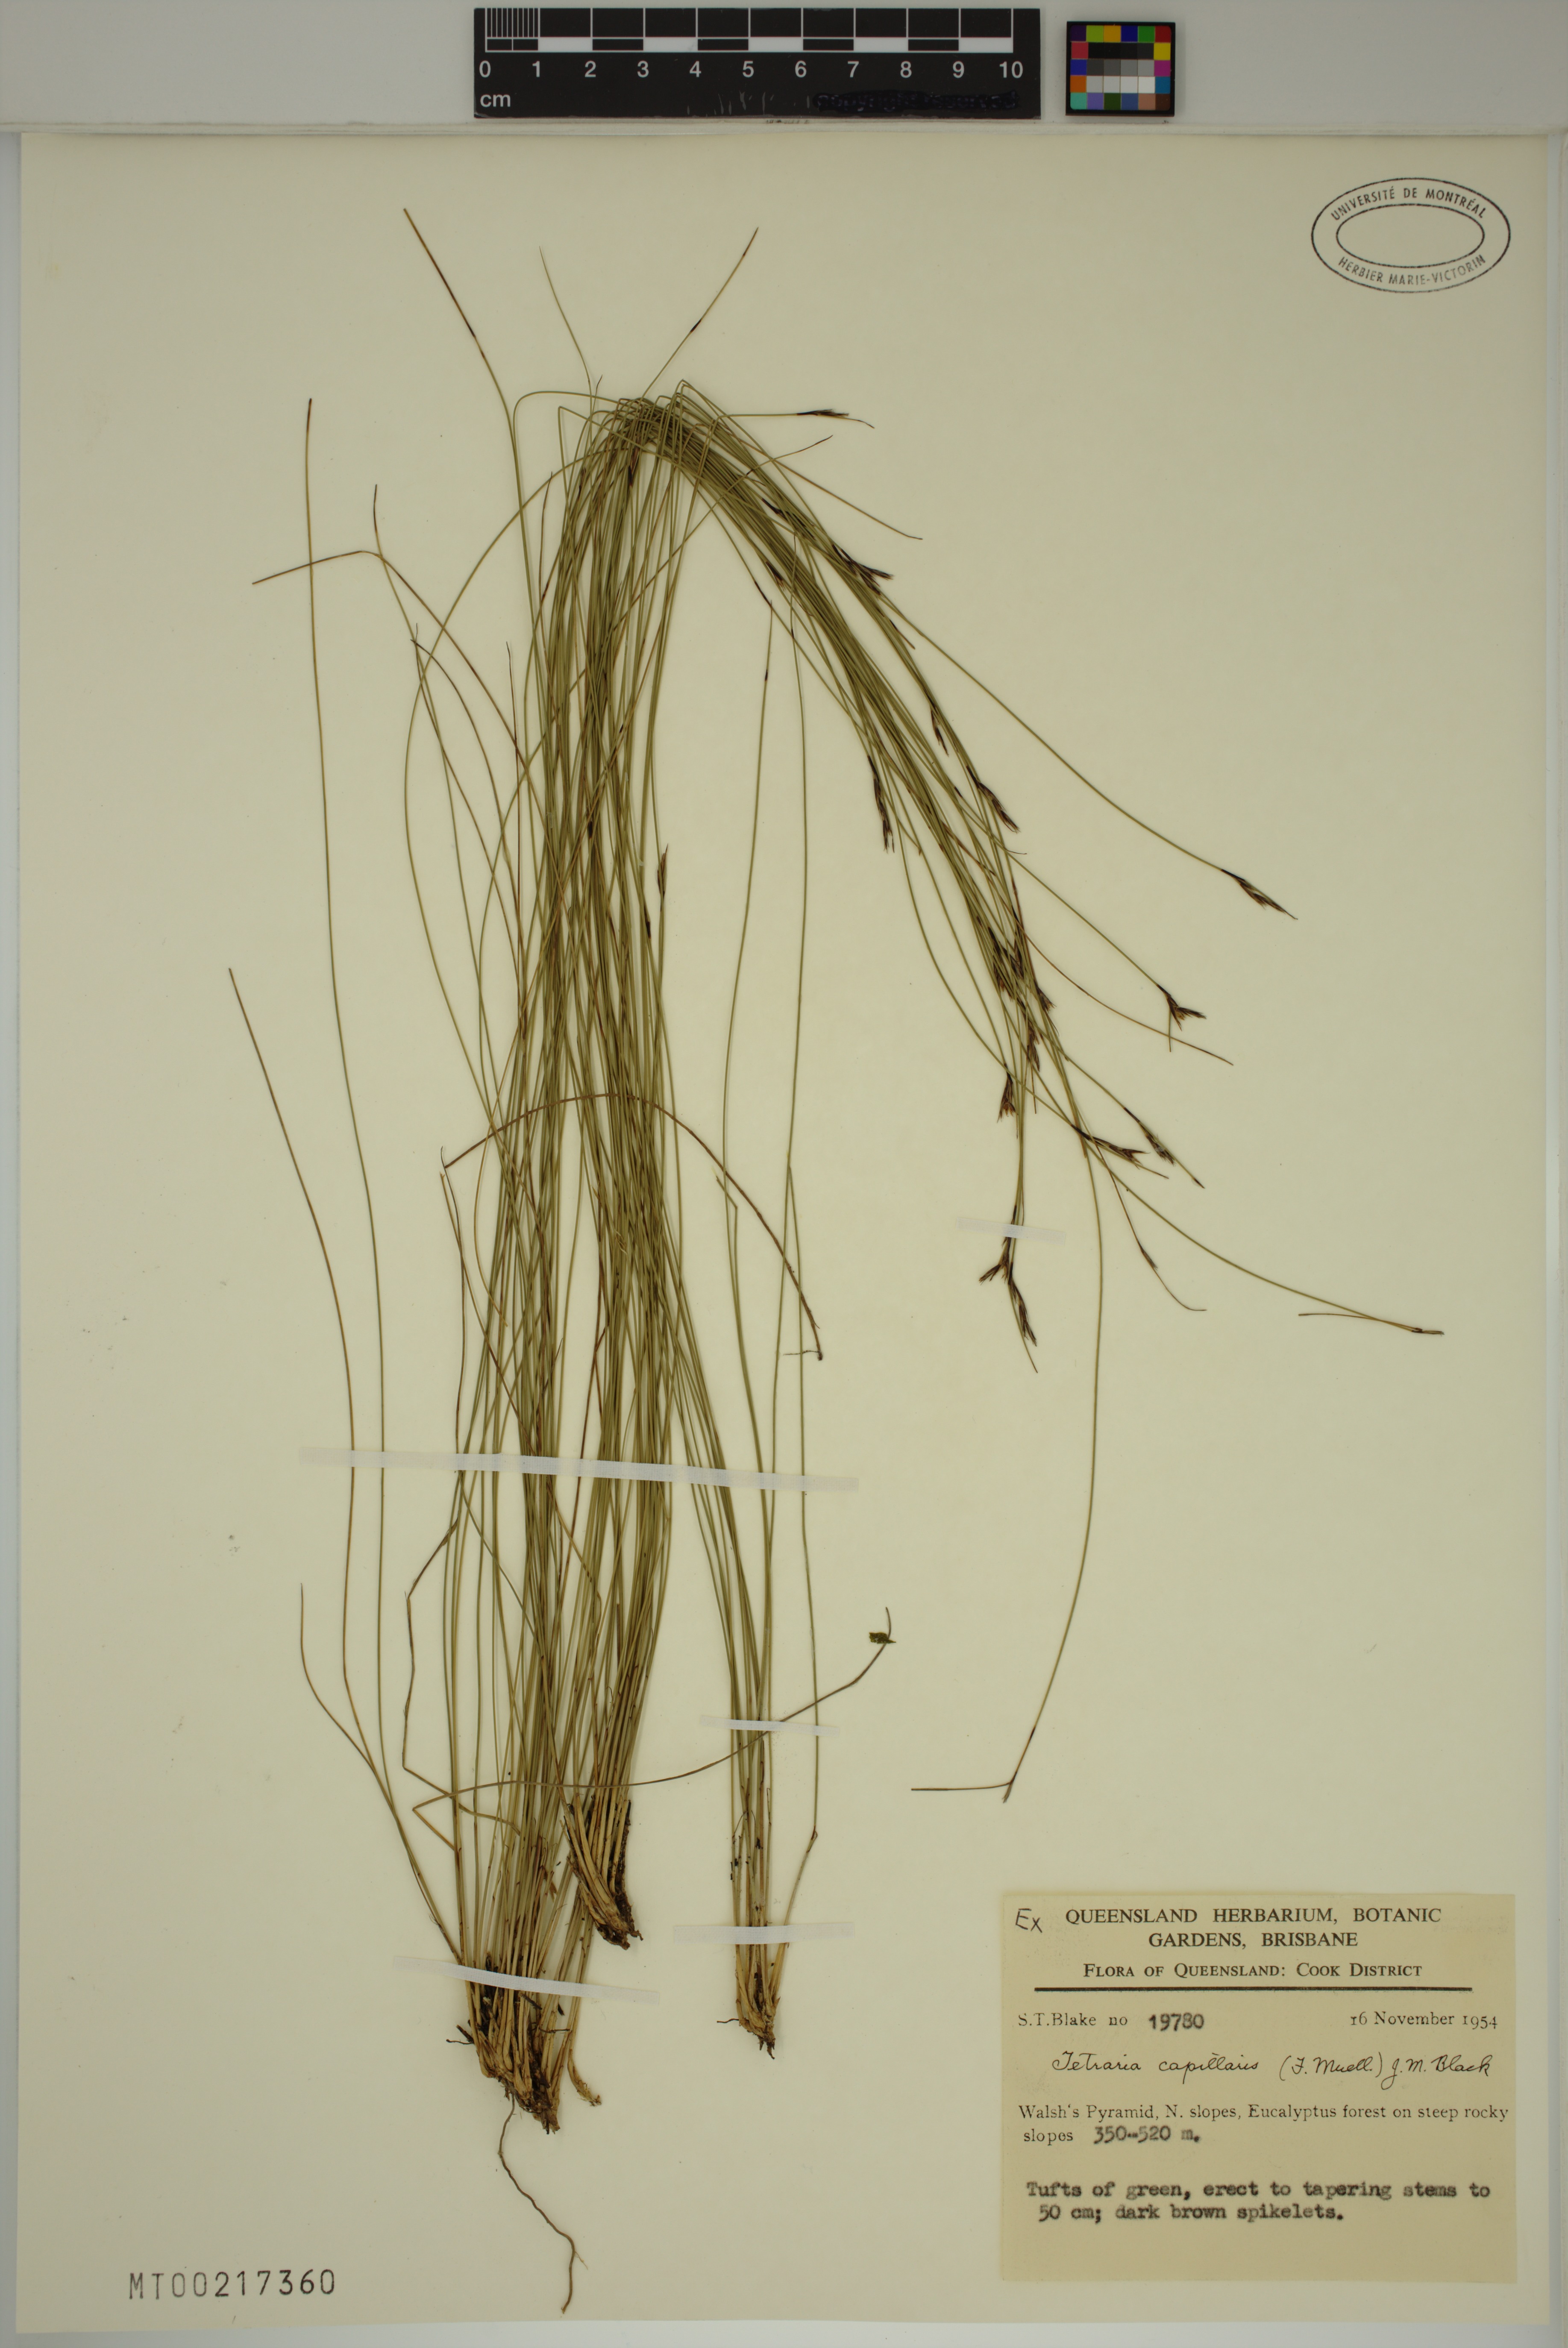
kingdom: Plantae
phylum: Tracheophyta
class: Liliopsida
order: Poales
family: Cyperaceae
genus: Tetraria
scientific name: Tetraria capillaris
